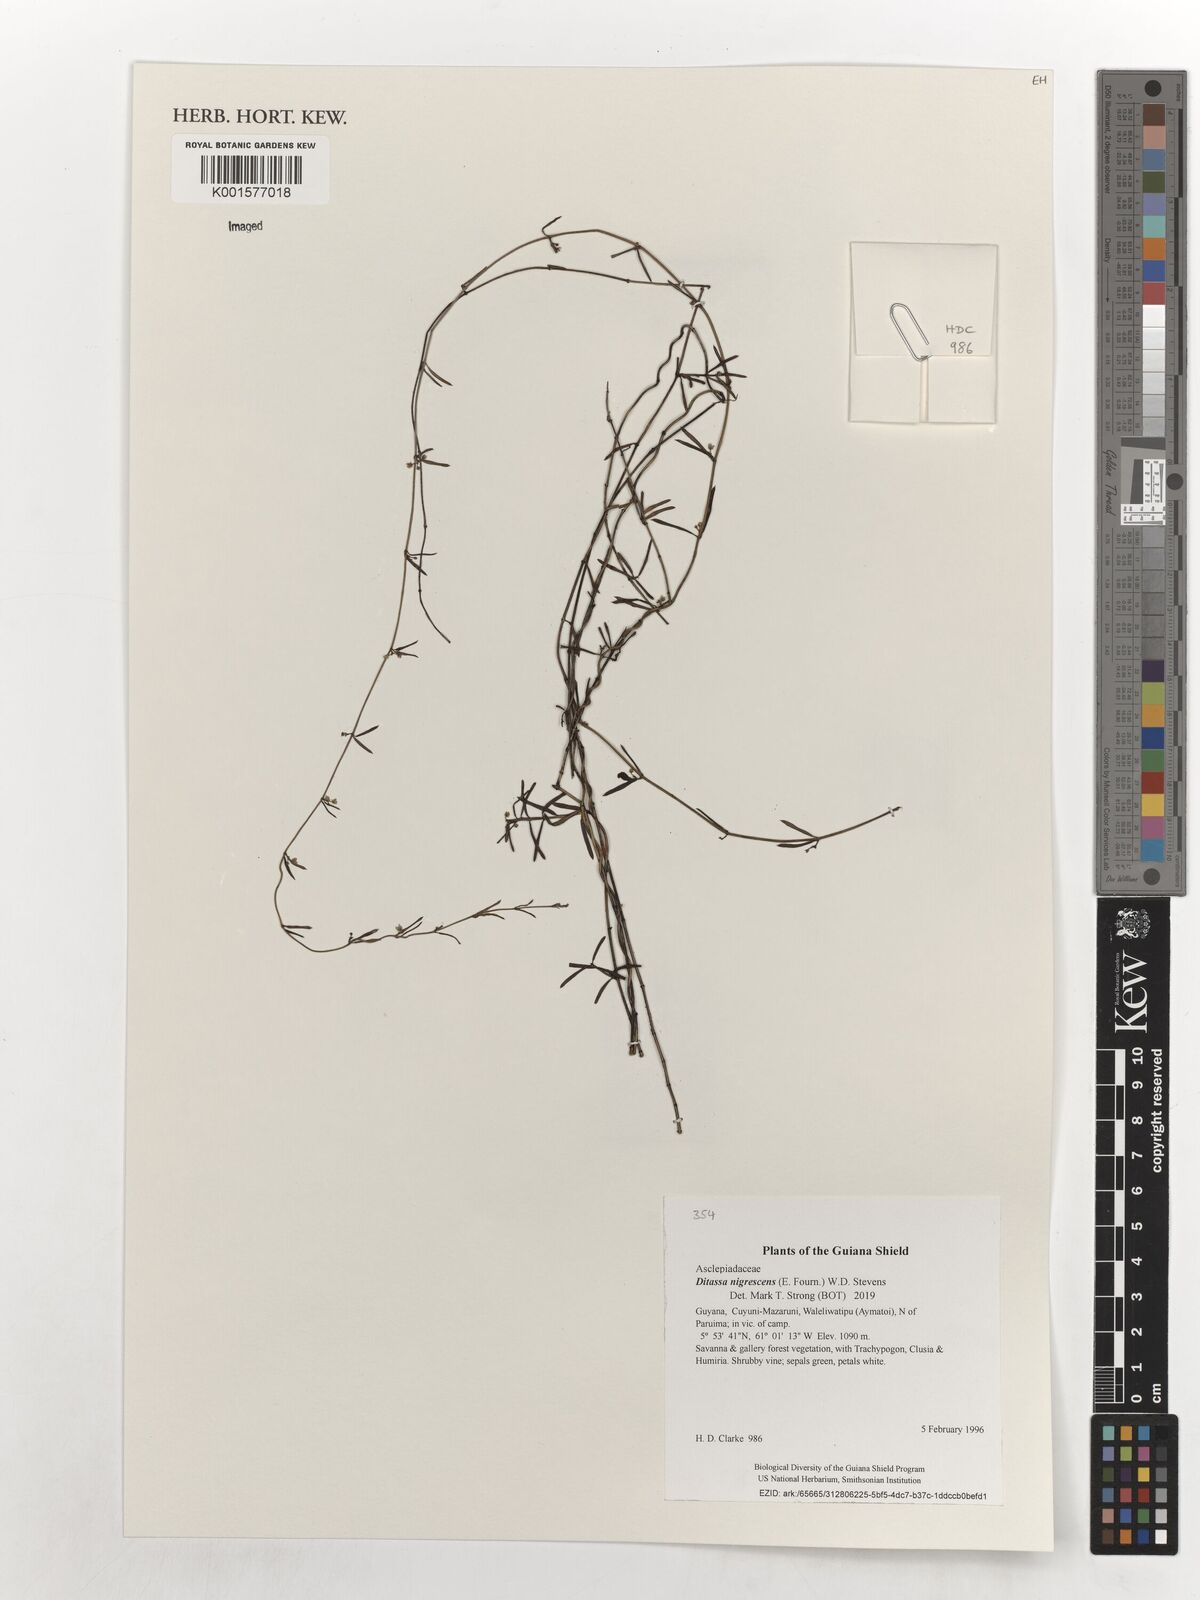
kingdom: Plantae
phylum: Tracheophyta
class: Magnoliopsida
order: Gentianales
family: Apocynaceae
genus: Ditassa
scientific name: Ditassa nigrescens
